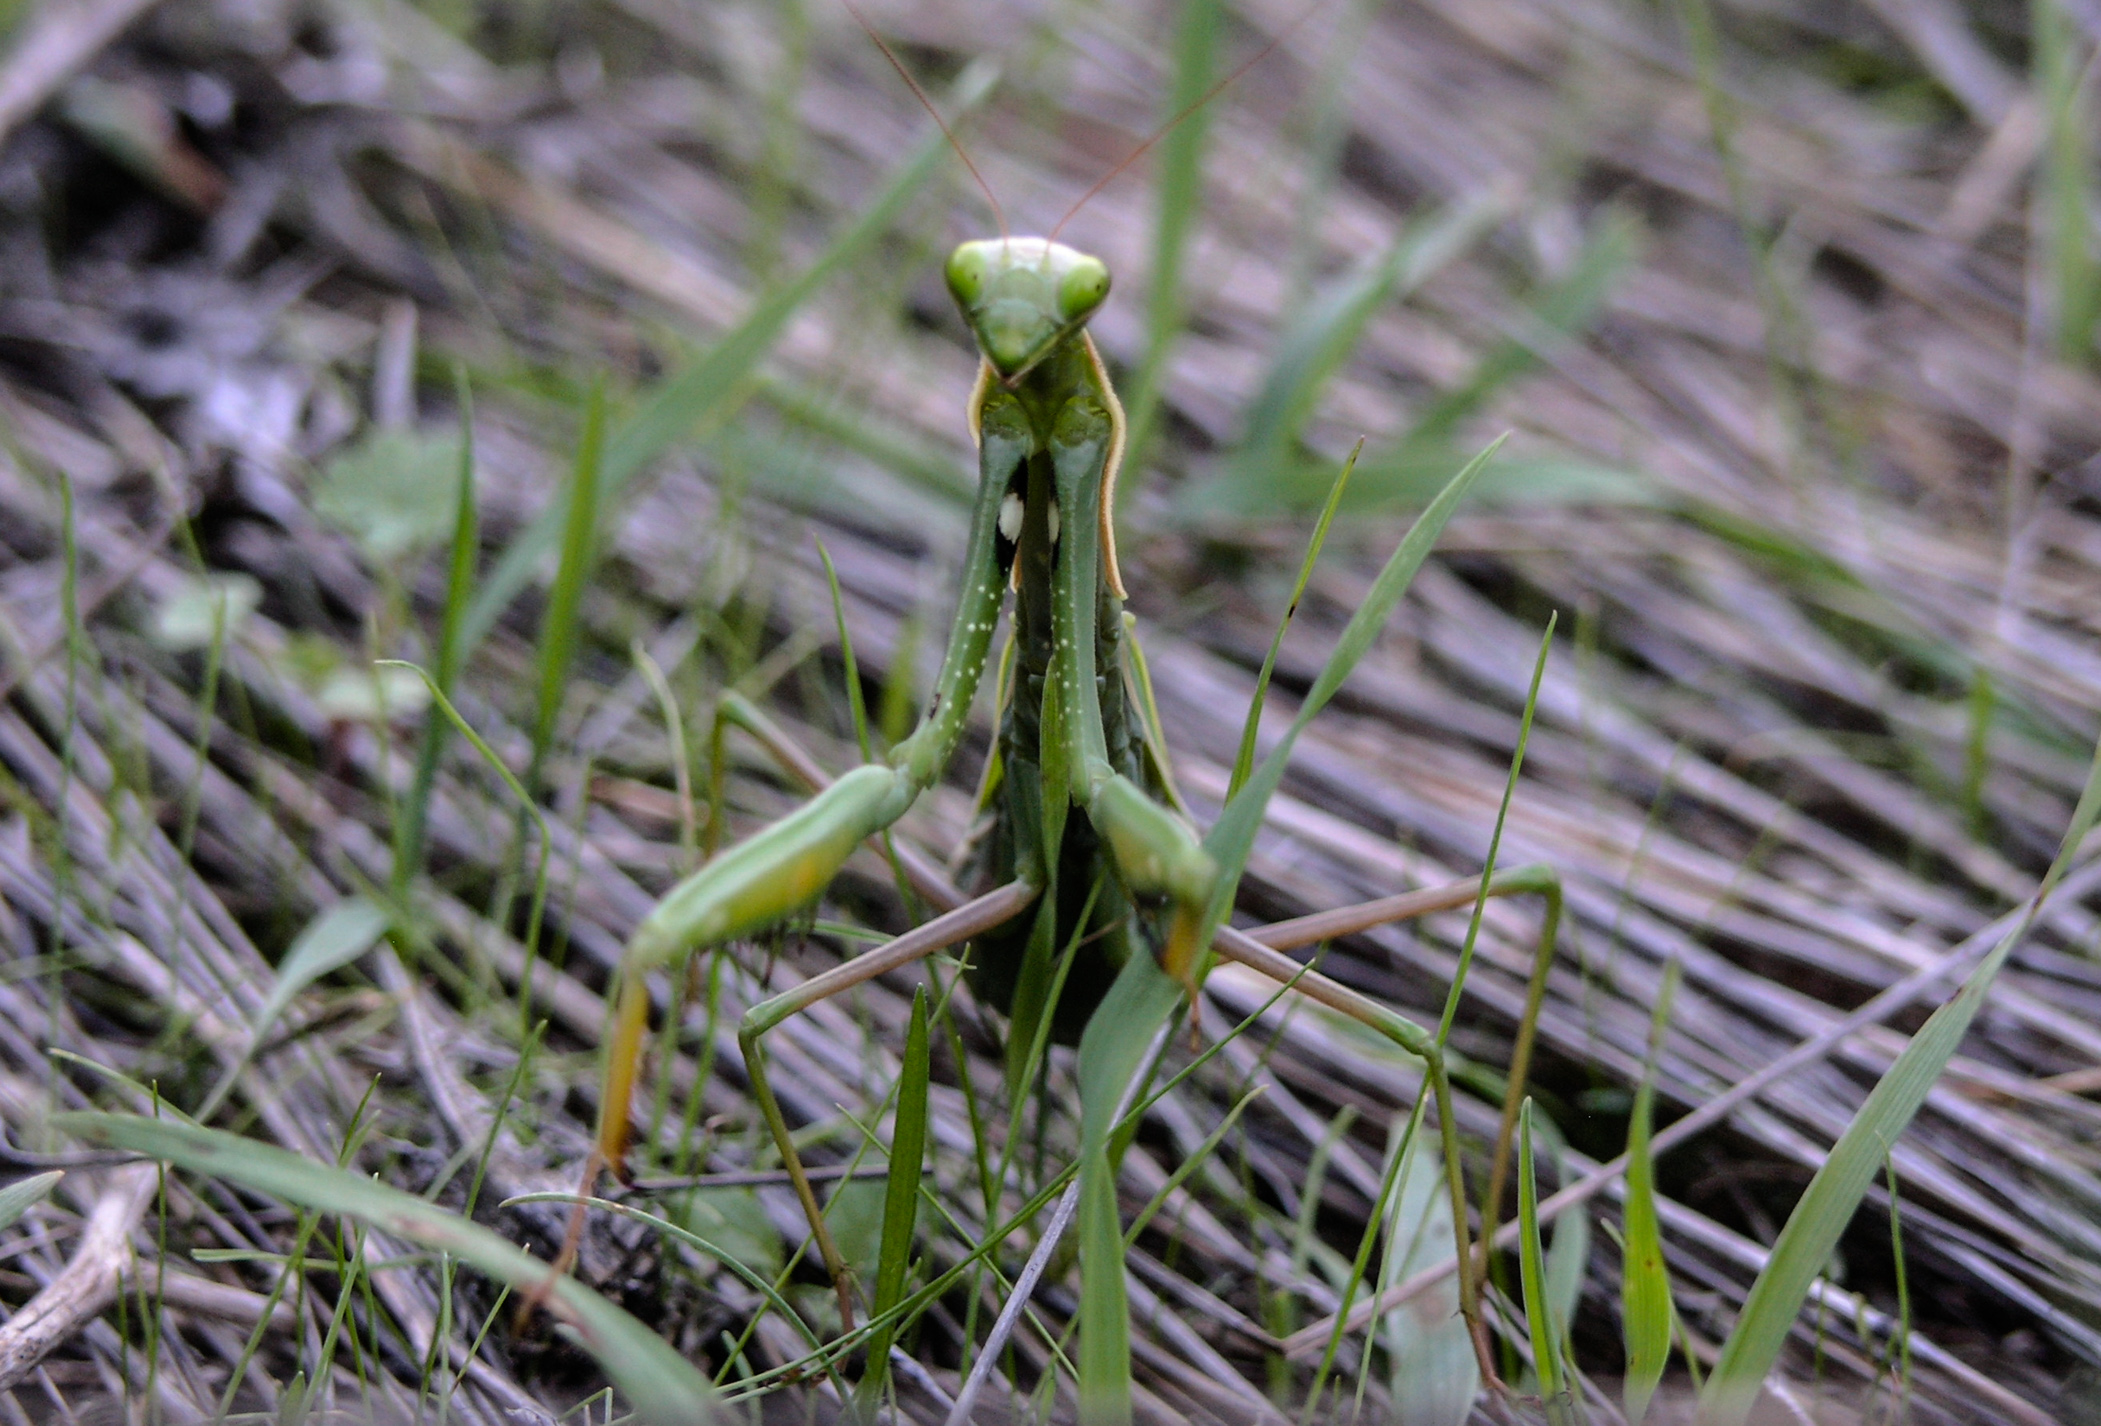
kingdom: Animalia
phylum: Arthropoda
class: Insecta
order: Mantodea
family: Mantidae
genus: Mantis
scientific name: Mantis religiosa
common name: Praying mantis
